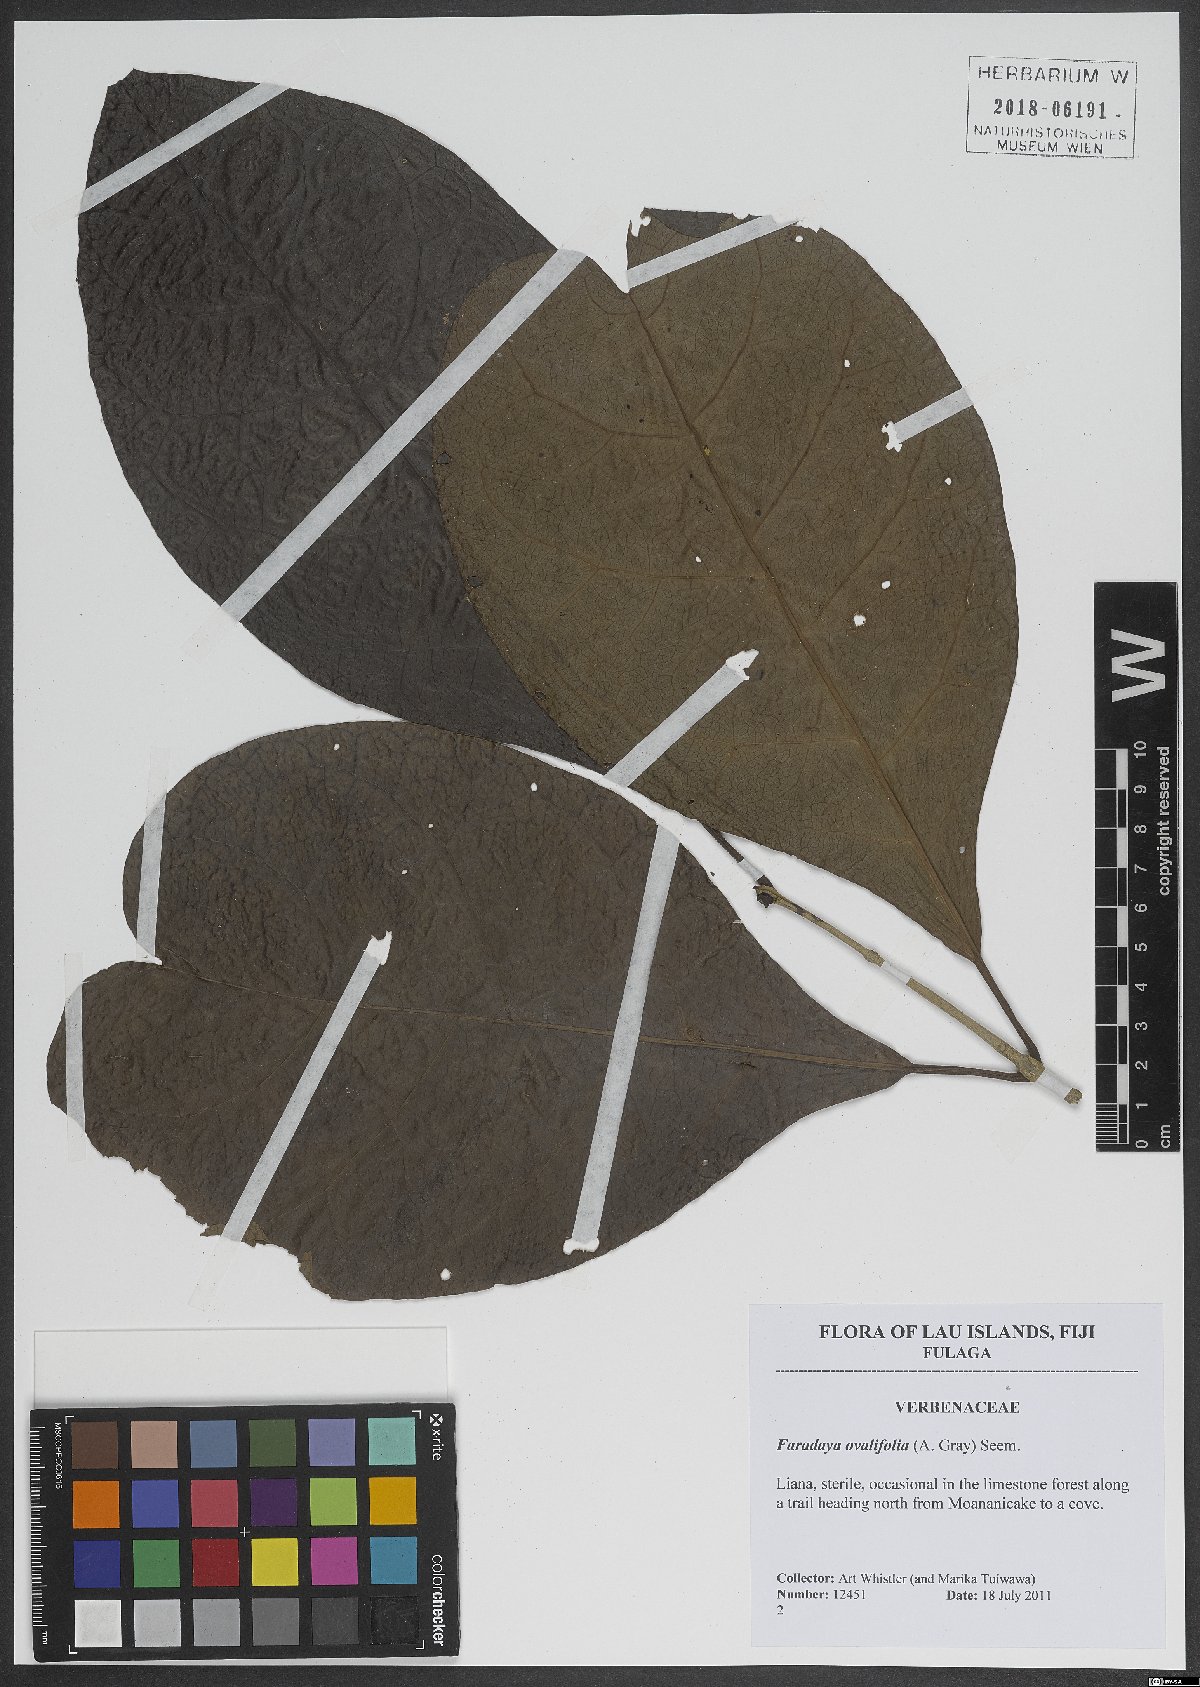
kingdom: Plantae
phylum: Tracheophyta
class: Magnoliopsida
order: Lamiales
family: Lamiaceae
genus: Oxera
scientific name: Oxera amicorum
